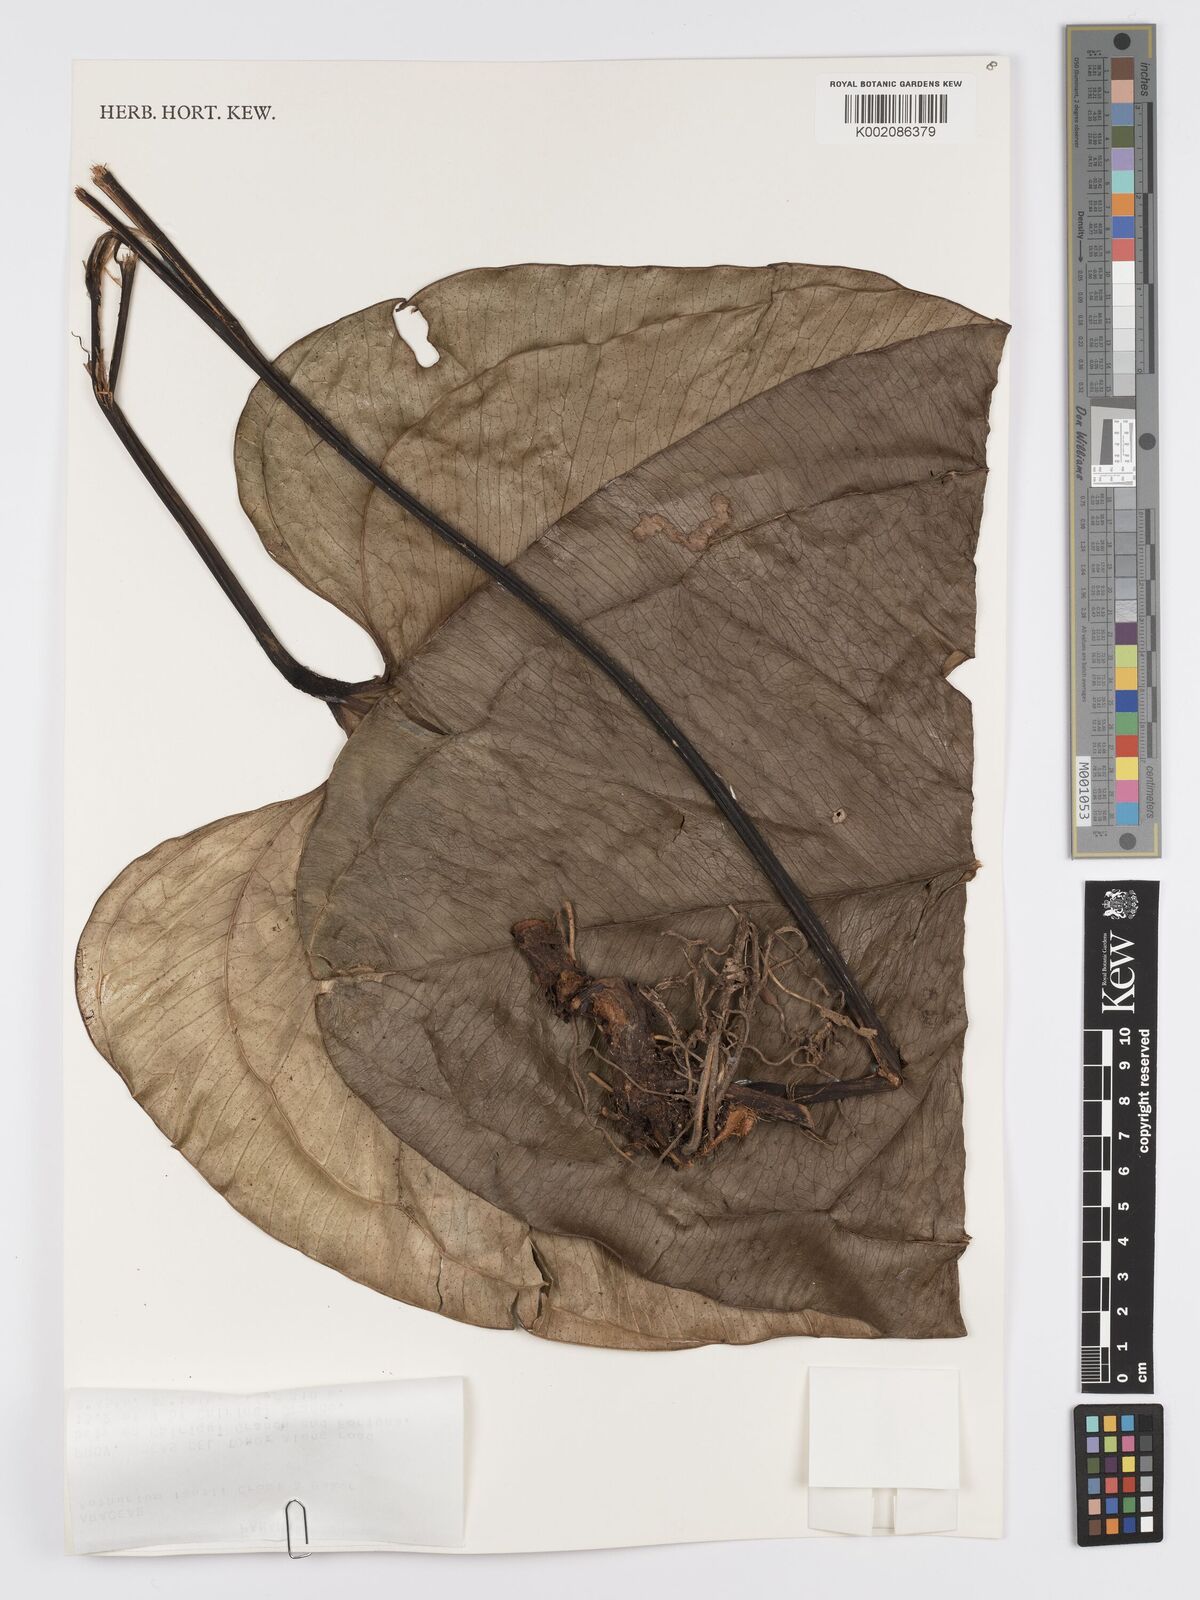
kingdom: Plantae
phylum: Tracheophyta
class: Liliopsida
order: Alismatales
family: Araceae
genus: Anthurium
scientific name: Anthurium lentii
